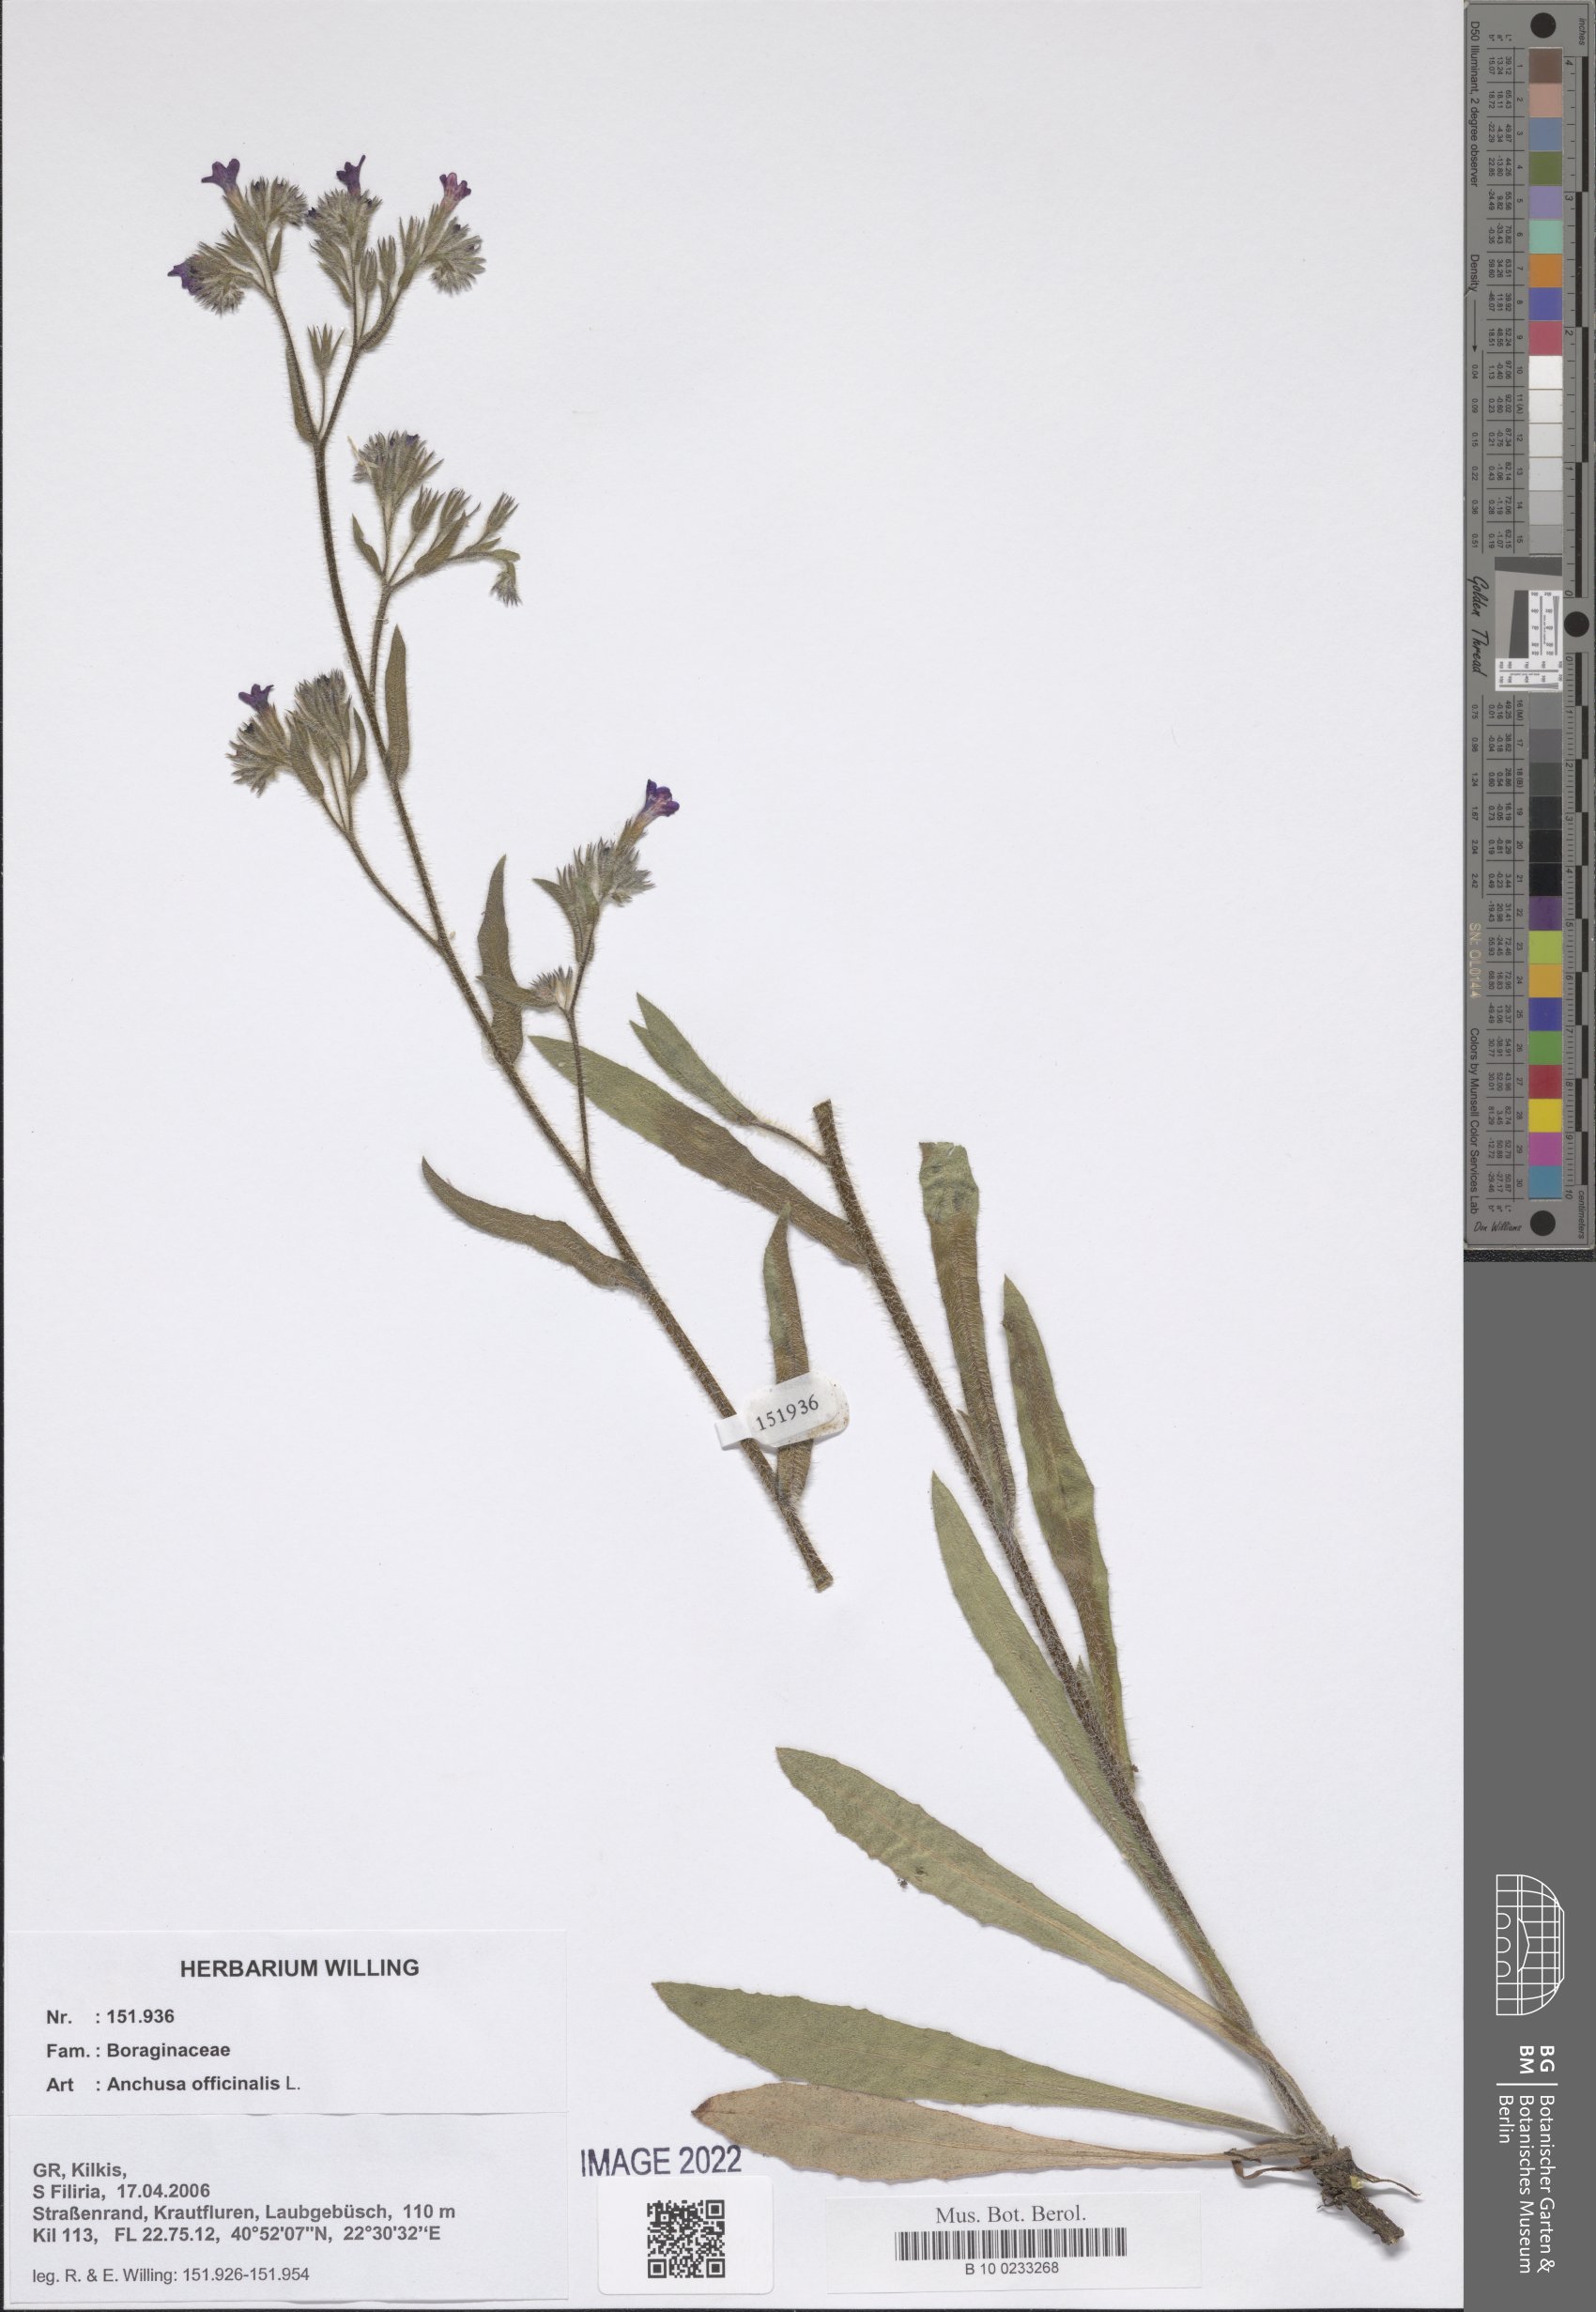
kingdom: Plantae
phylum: Tracheophyta
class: Magnoliopsida
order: Boraginales
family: Boraginaceae
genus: Anchusa
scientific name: Anchusa officinalis
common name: Alkanet
